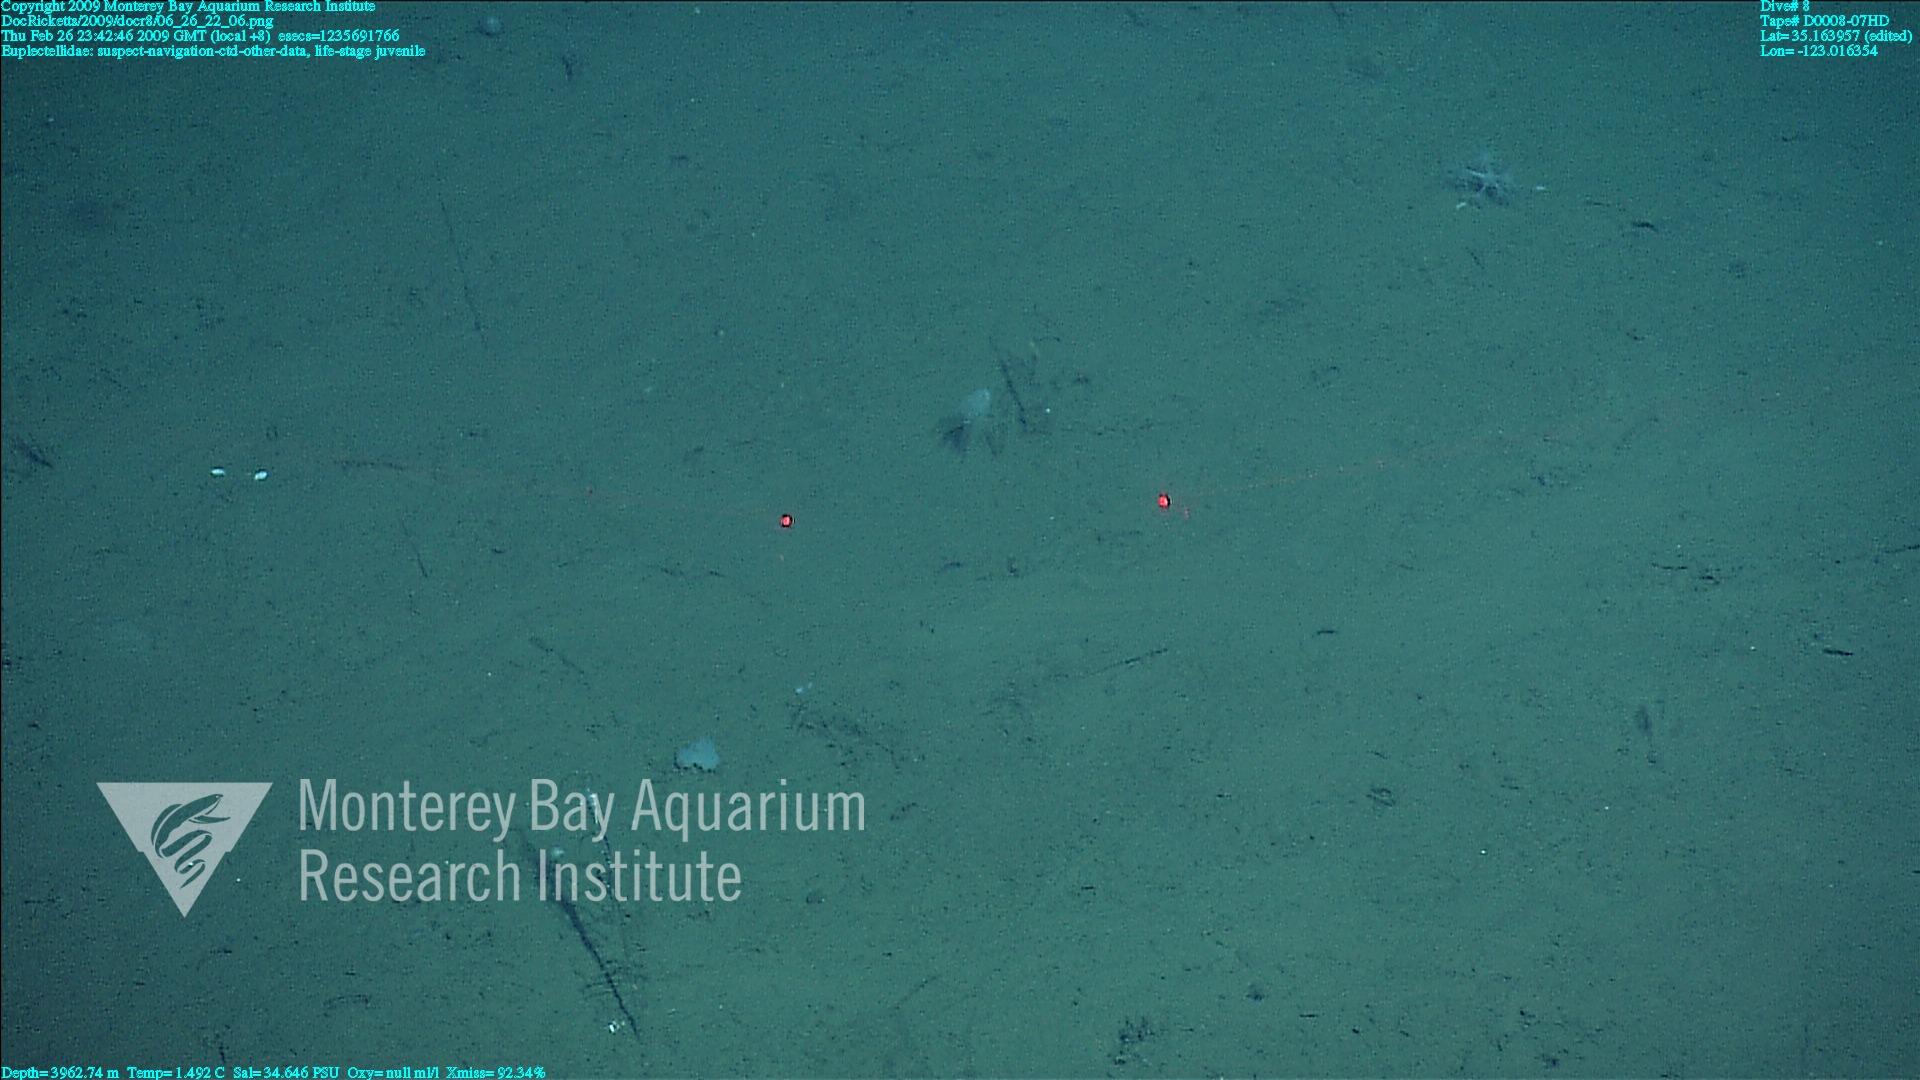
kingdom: Animalia
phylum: Porifera
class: Hexactinellida
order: Lyssacinosida
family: Euplectellidae
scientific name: Euplectellidae
